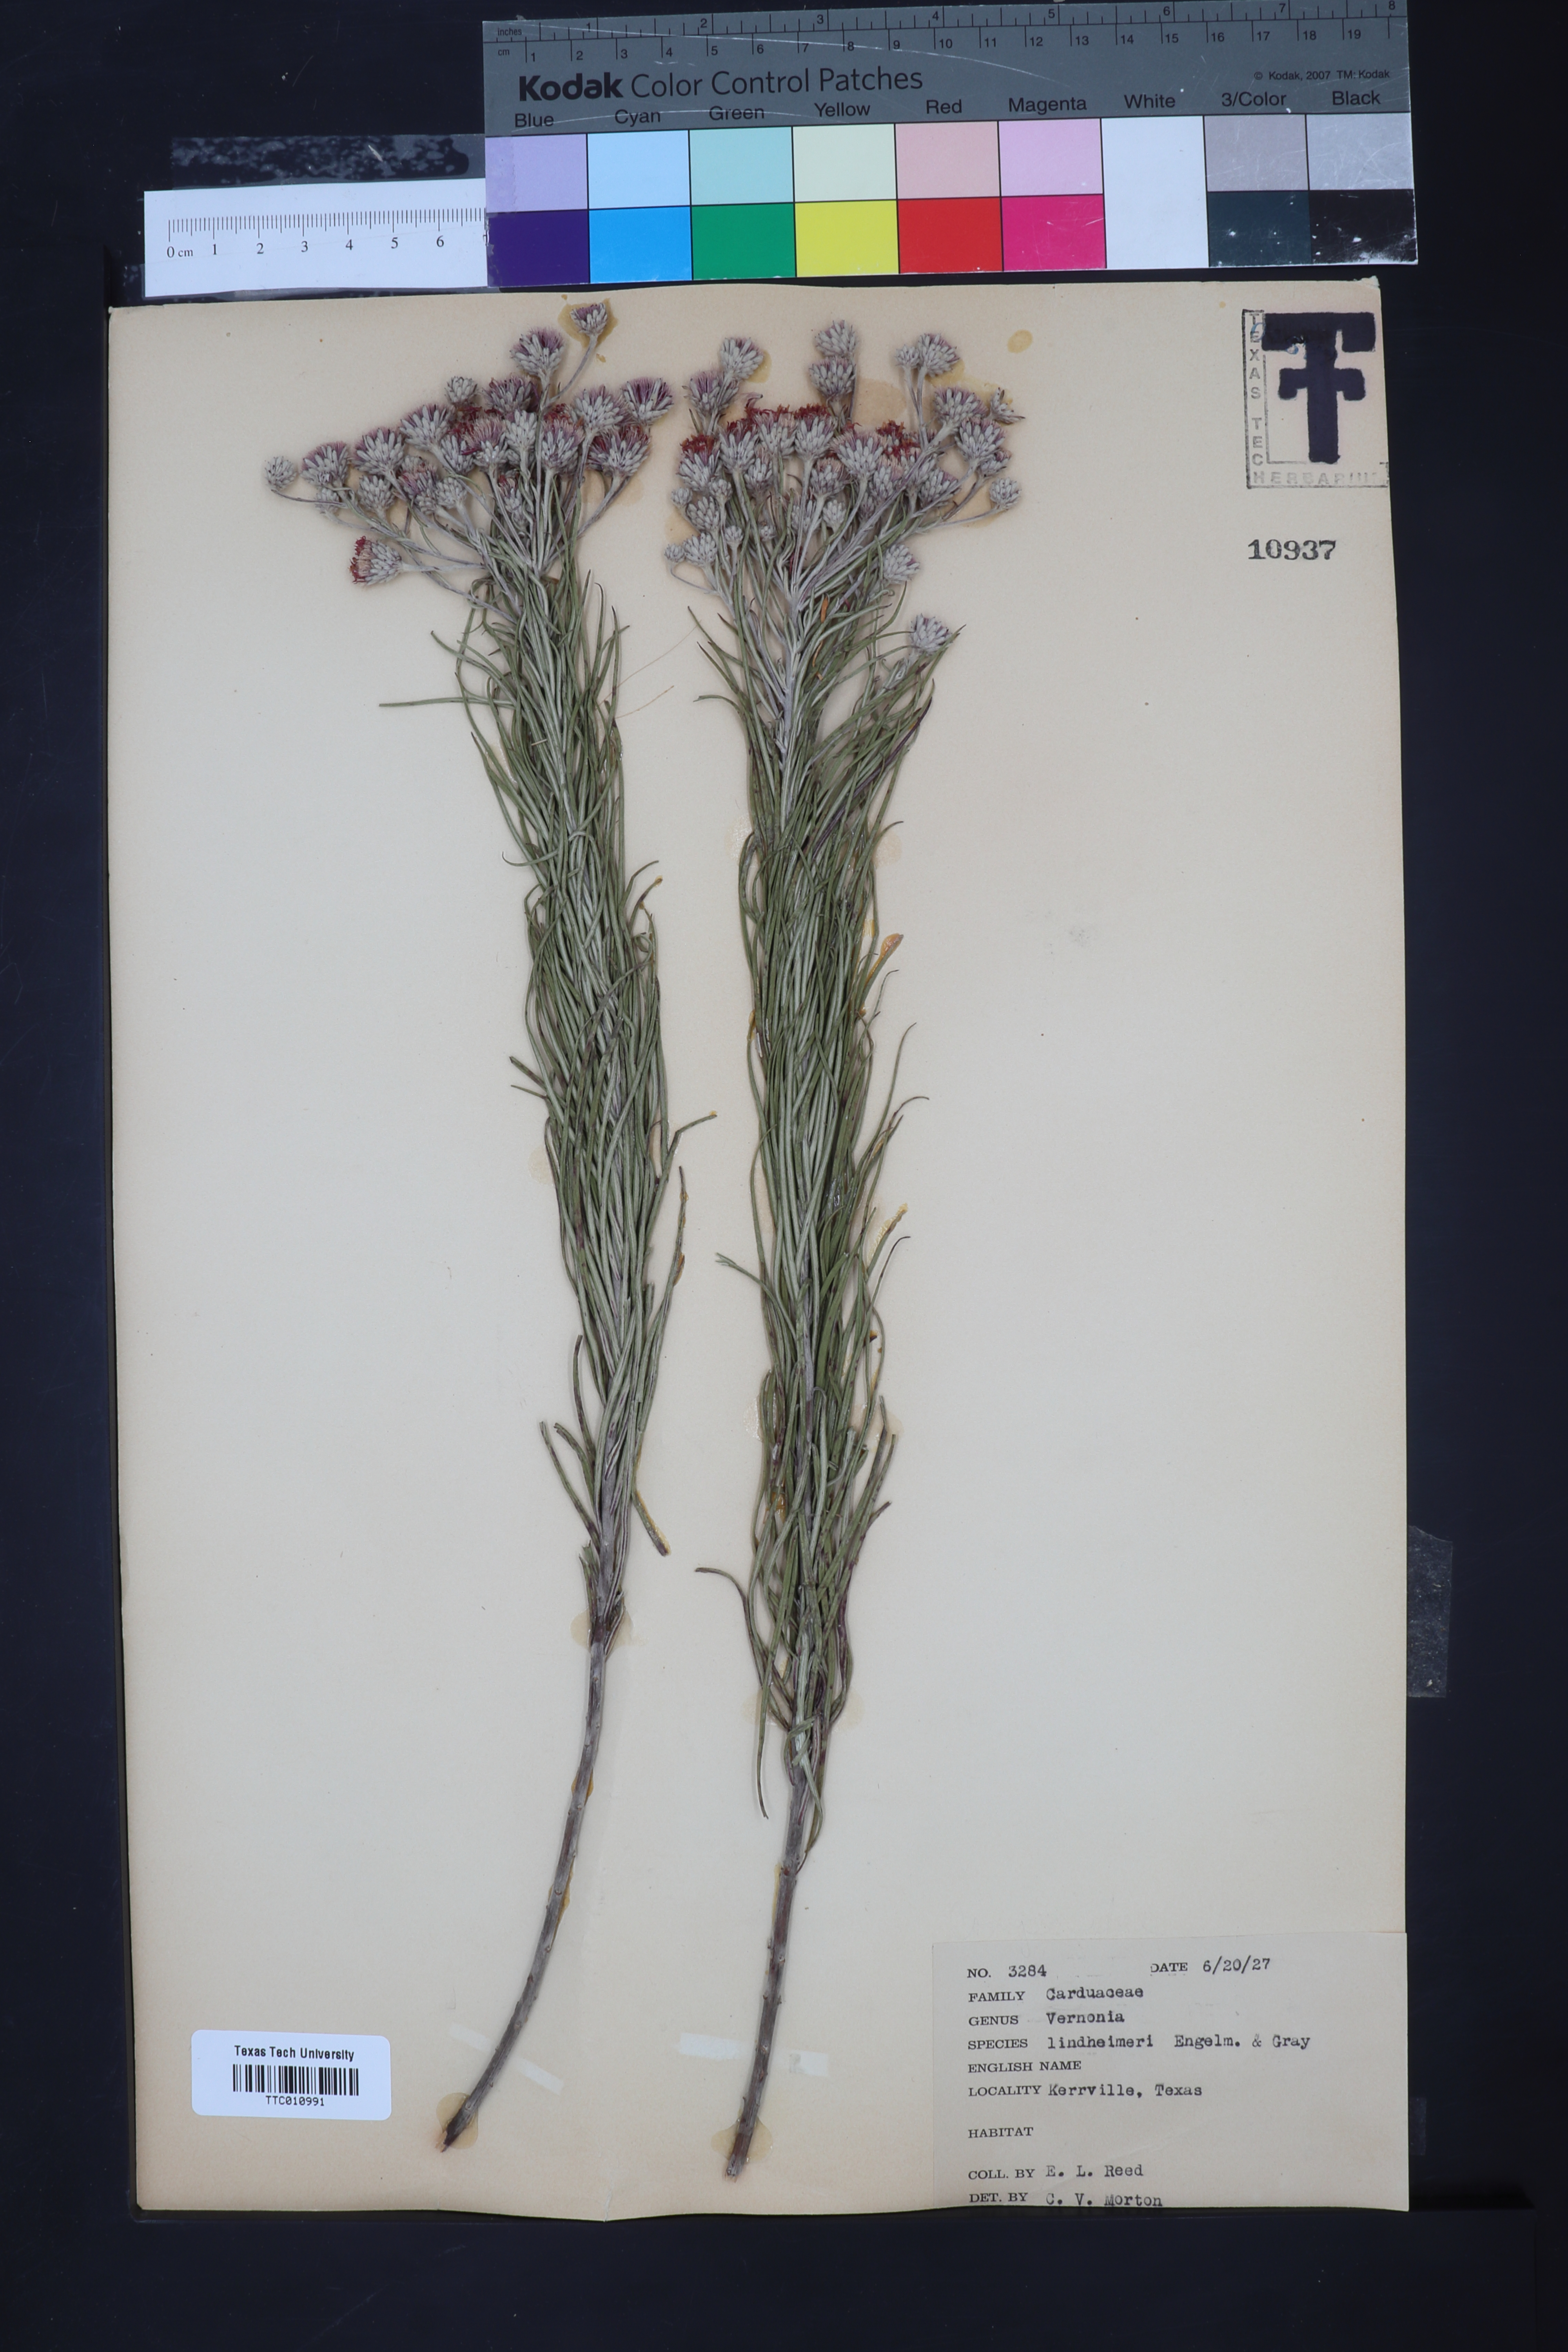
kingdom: Plantae
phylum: Tracheophyta
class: Magnoliopsida
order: Asterales
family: Asteraceae
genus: Vernonia
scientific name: Vernonia lindheimeri
